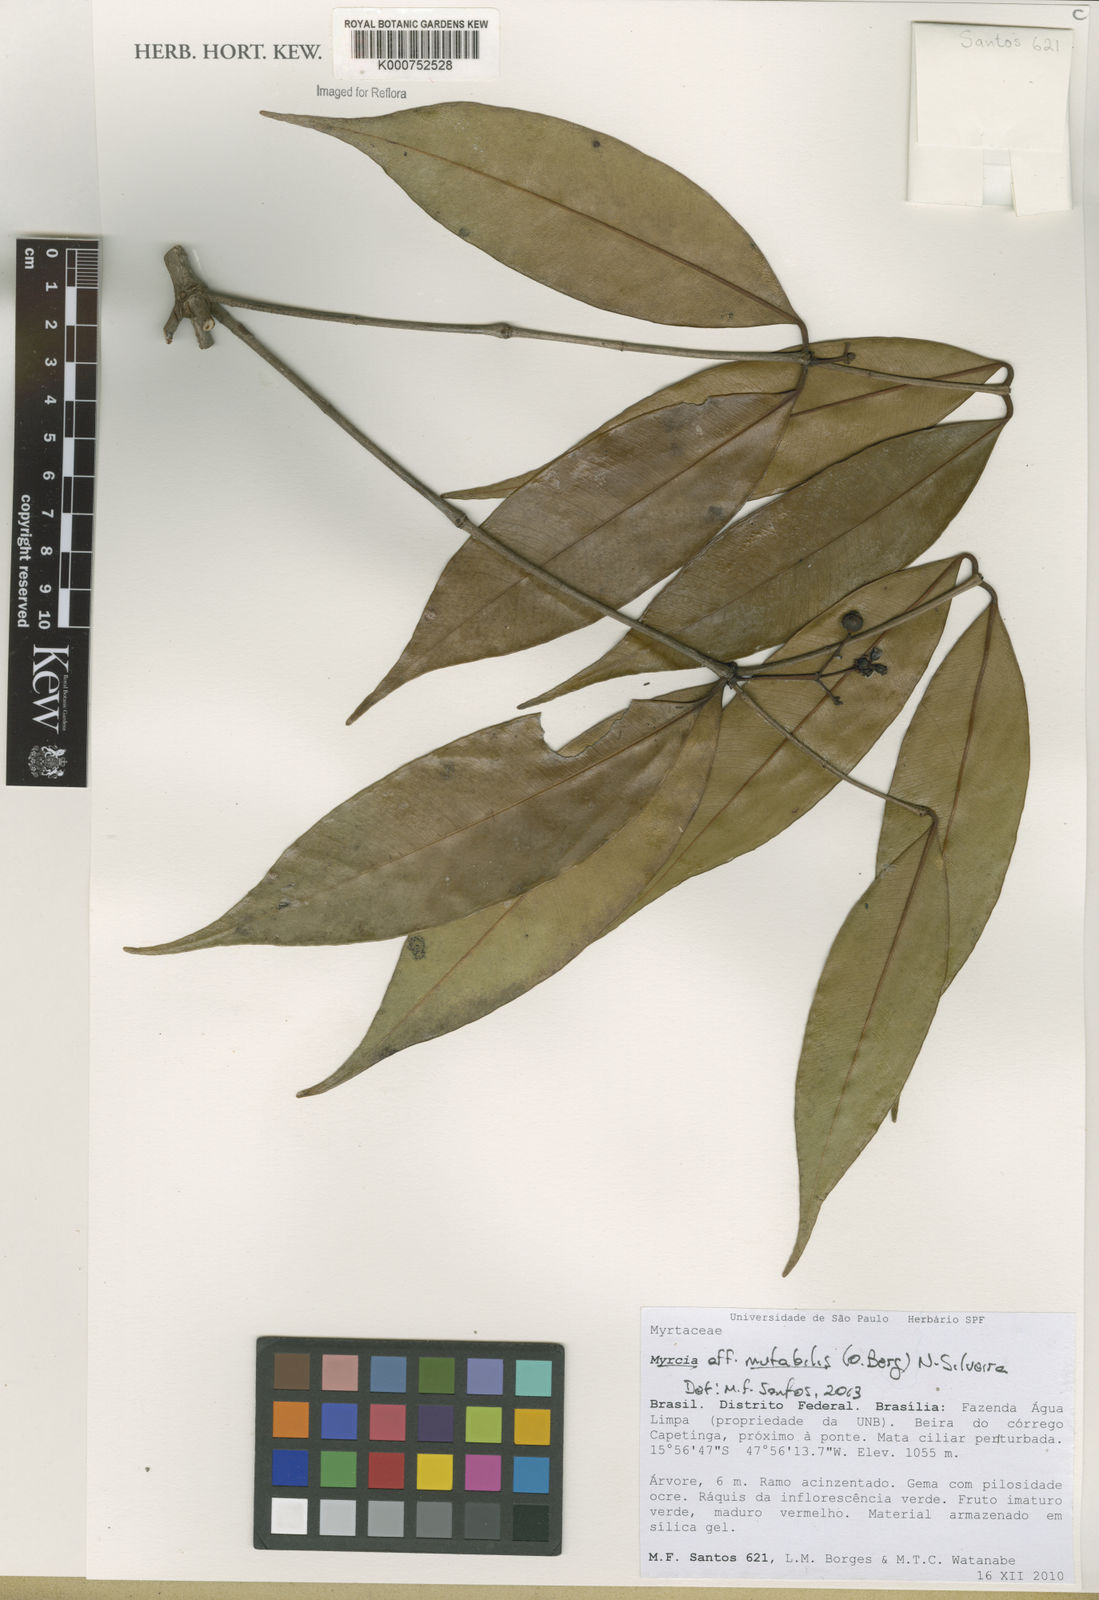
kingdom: Plantae
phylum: Tracheophyta
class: Magnoliopsida
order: Myrtales
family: Myrtaceae
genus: Myrcia
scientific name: Myrcia sessilissima
